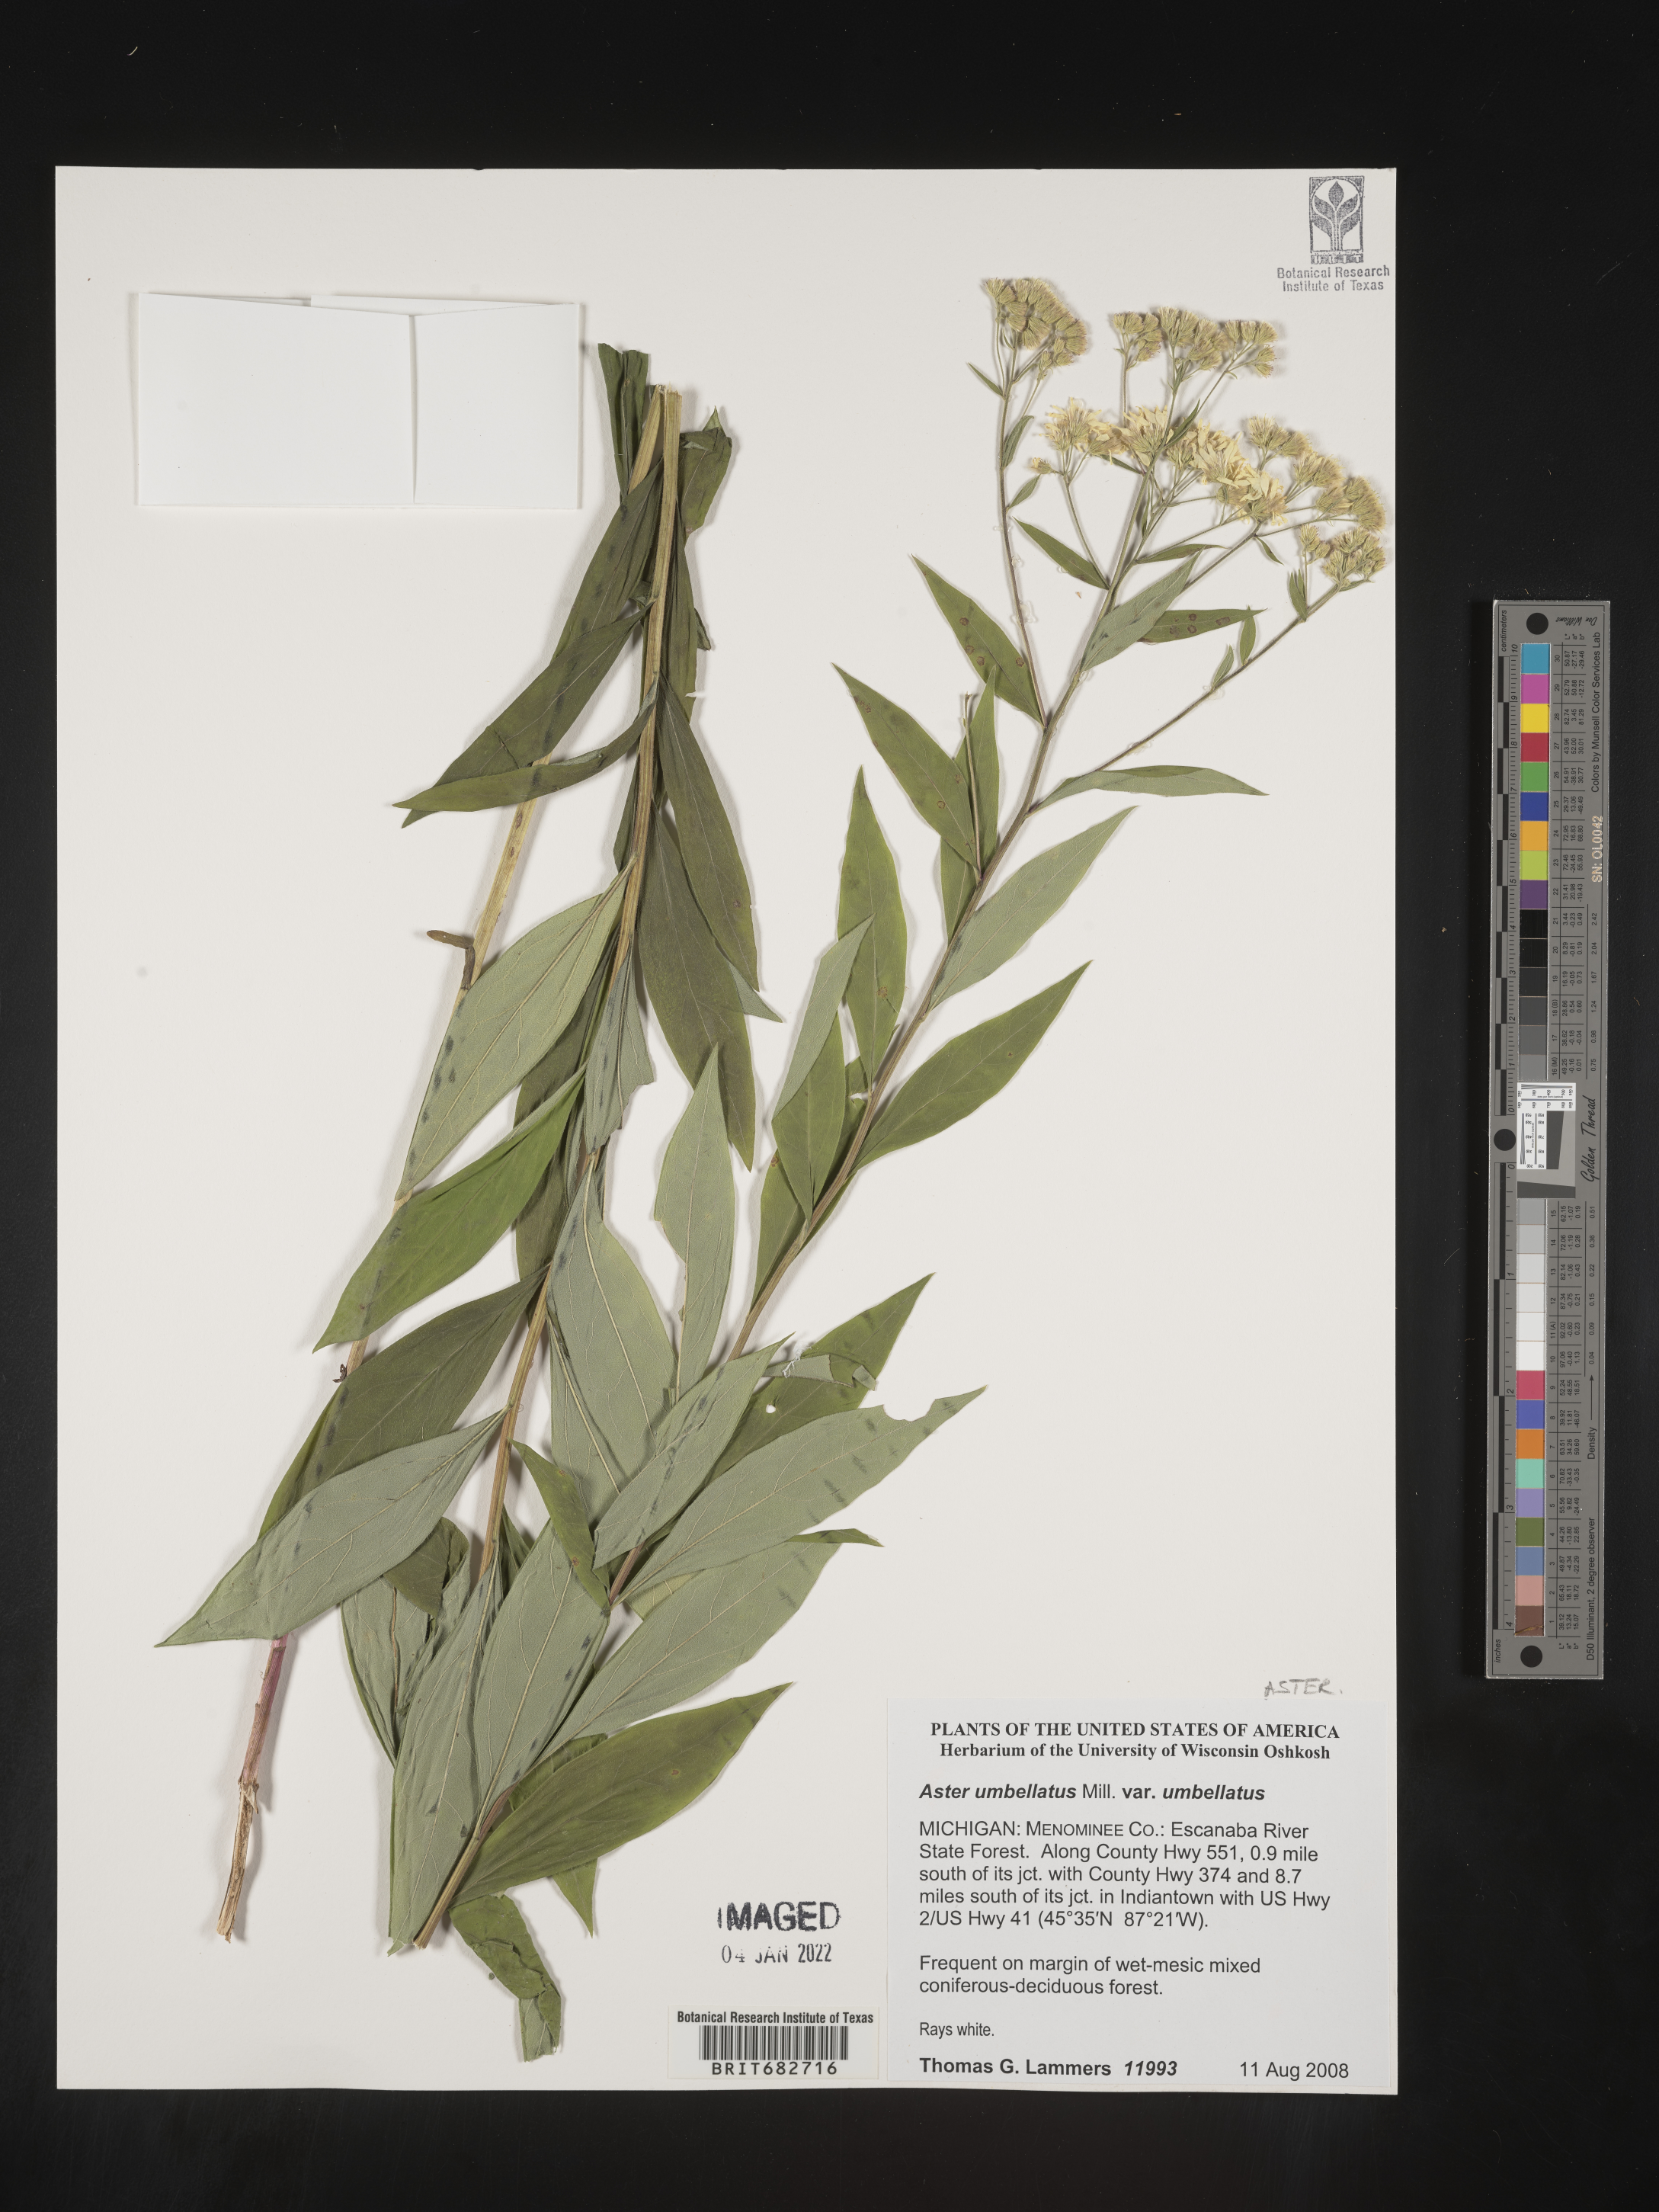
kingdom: Plantae
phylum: Tracheophyta
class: Magnoliopsida
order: Asterales
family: Asteraceae
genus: Doellingeria
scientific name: Doellingeria umbellata
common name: Flat-top white aster
